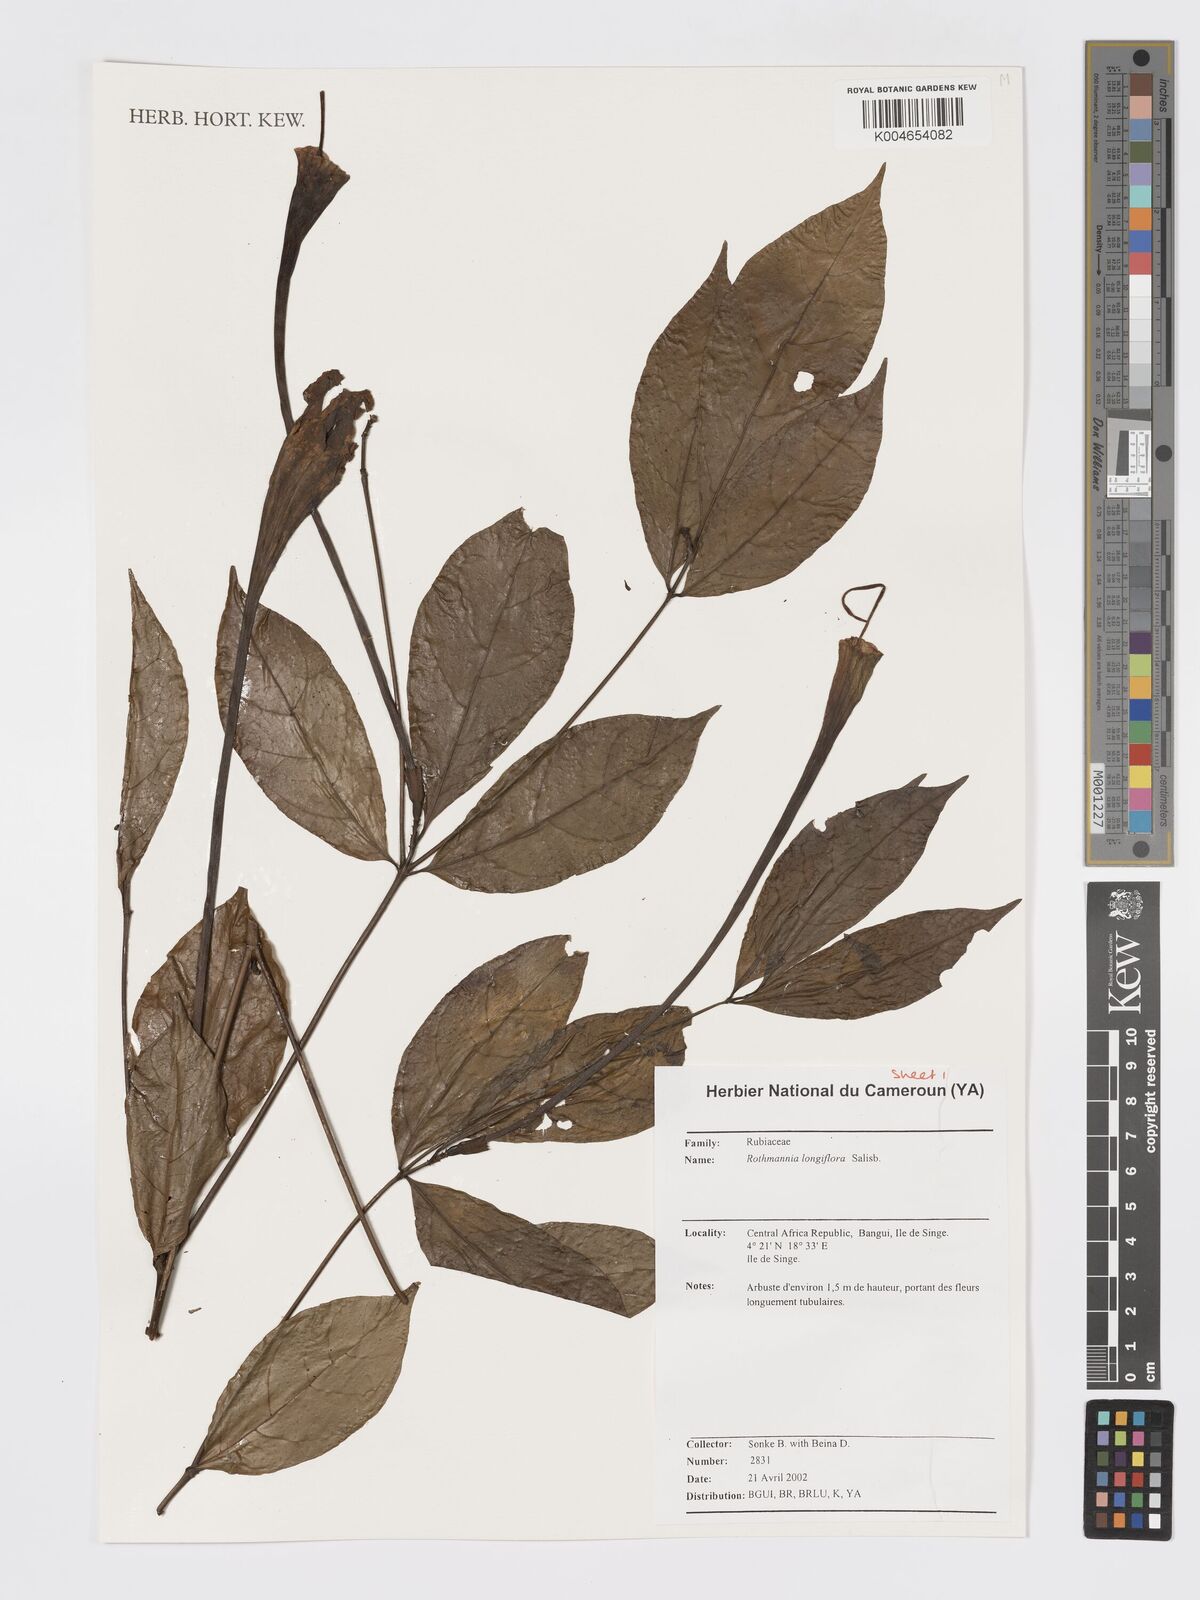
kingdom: Plantae
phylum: Tracheophyta
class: Magnoliopsida
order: Gentianales
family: Rubiaceae
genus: Rothmannia
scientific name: Rothmannia longiflora
